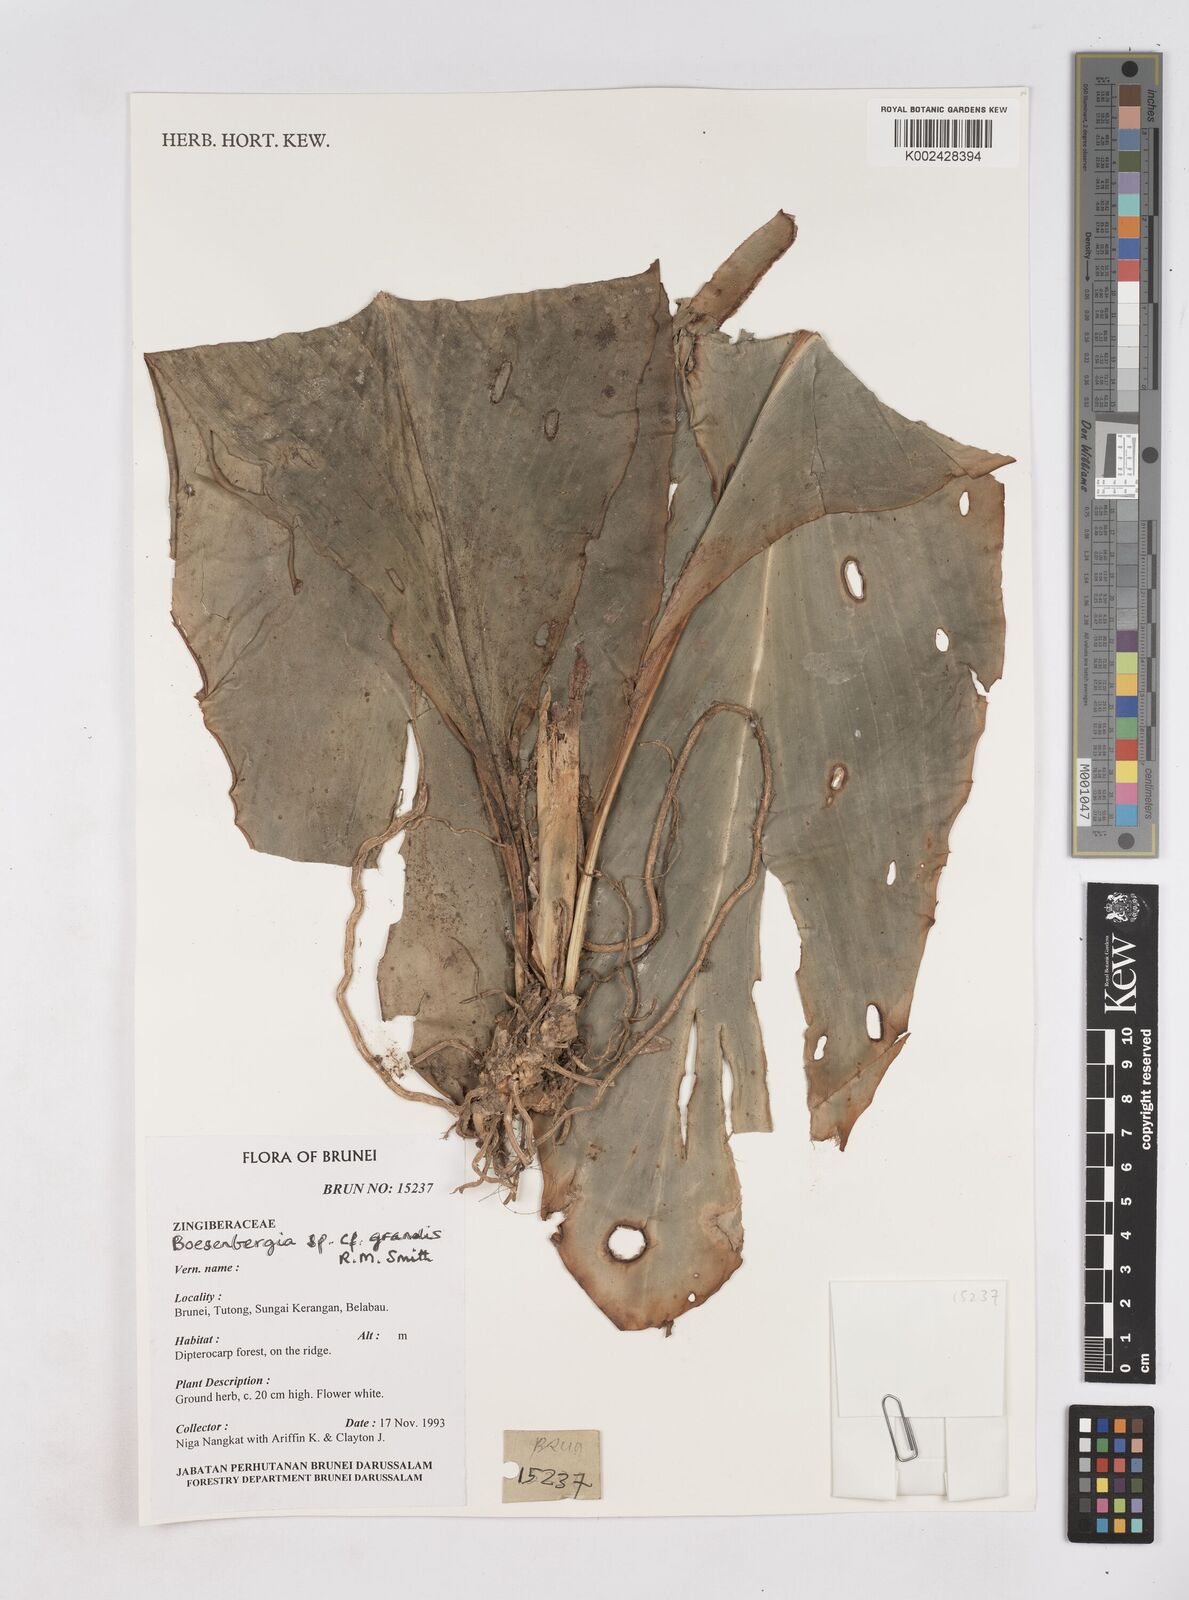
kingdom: Plantae
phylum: Tracheophyta
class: Liliopsida
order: Zingiberales
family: Zingiberaceae
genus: Boesenbergia
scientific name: Boesenbergia grandis
